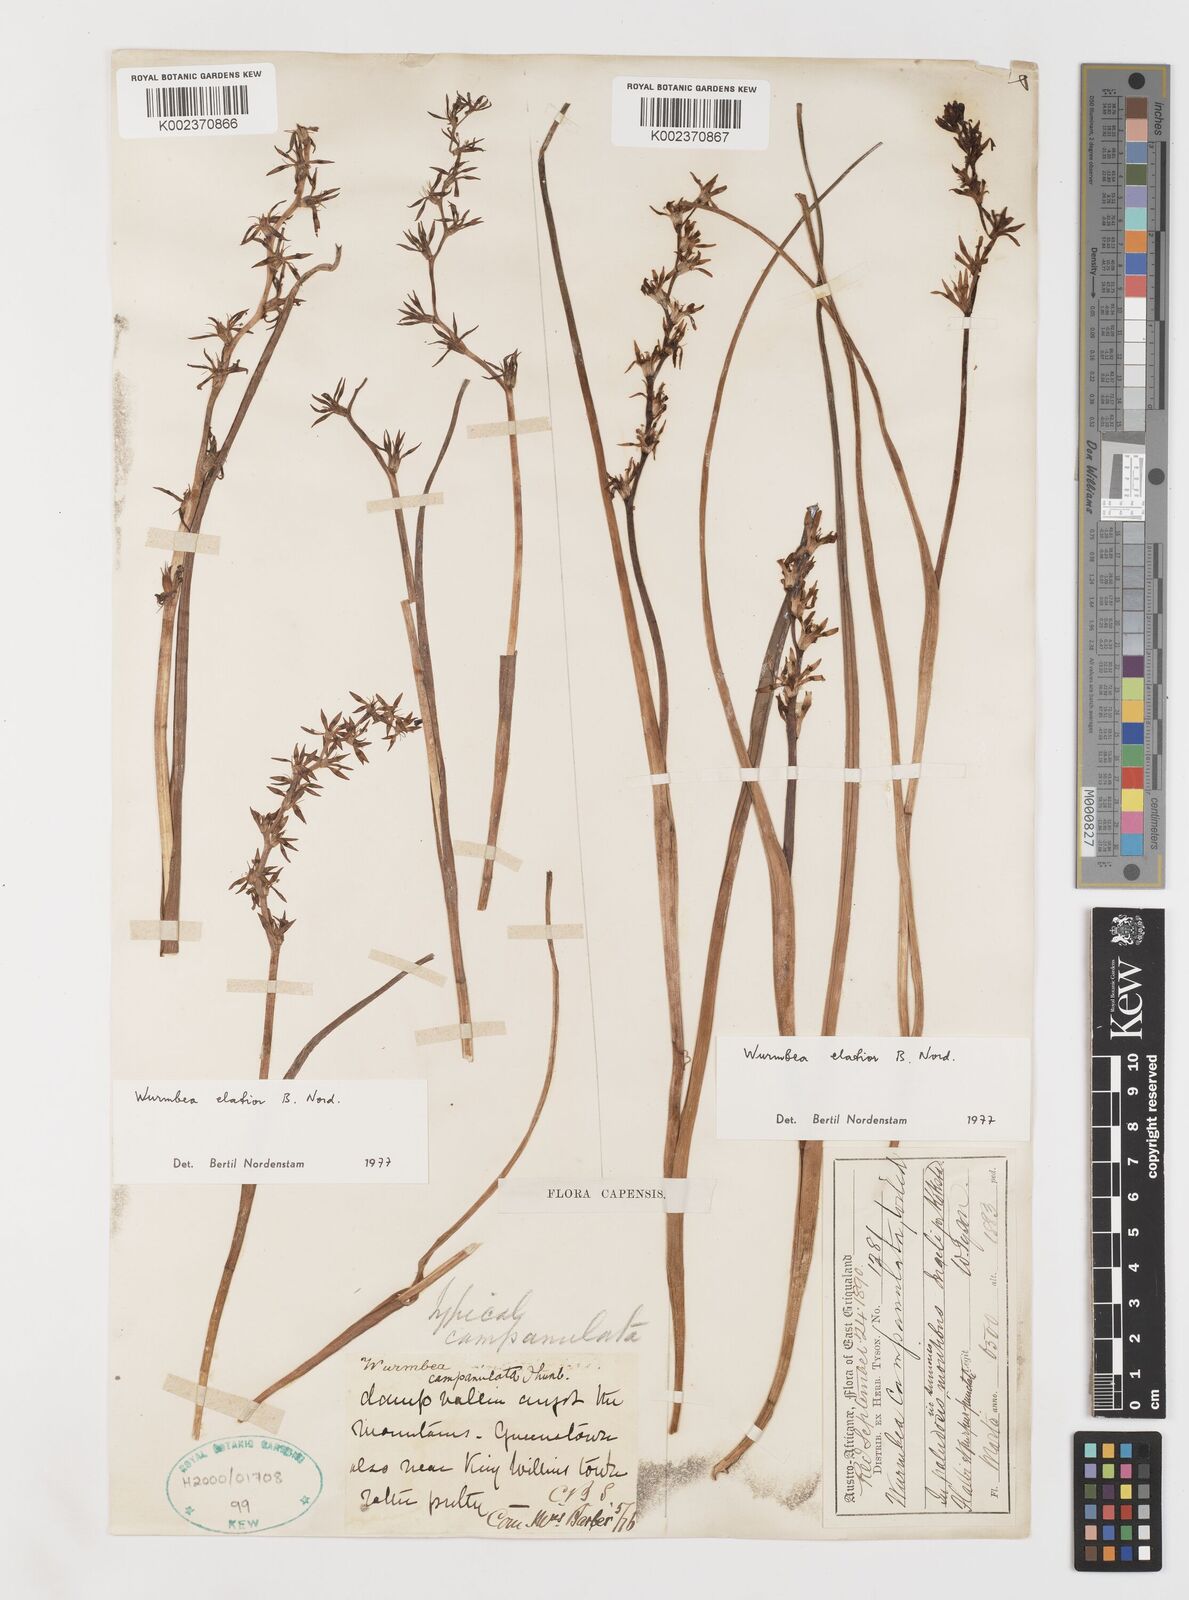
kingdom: Plantae
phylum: Tracheophyta
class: Liliopsida
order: Liliales
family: Colchicaceae
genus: Wurmbea
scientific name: Wurmbea elatior
